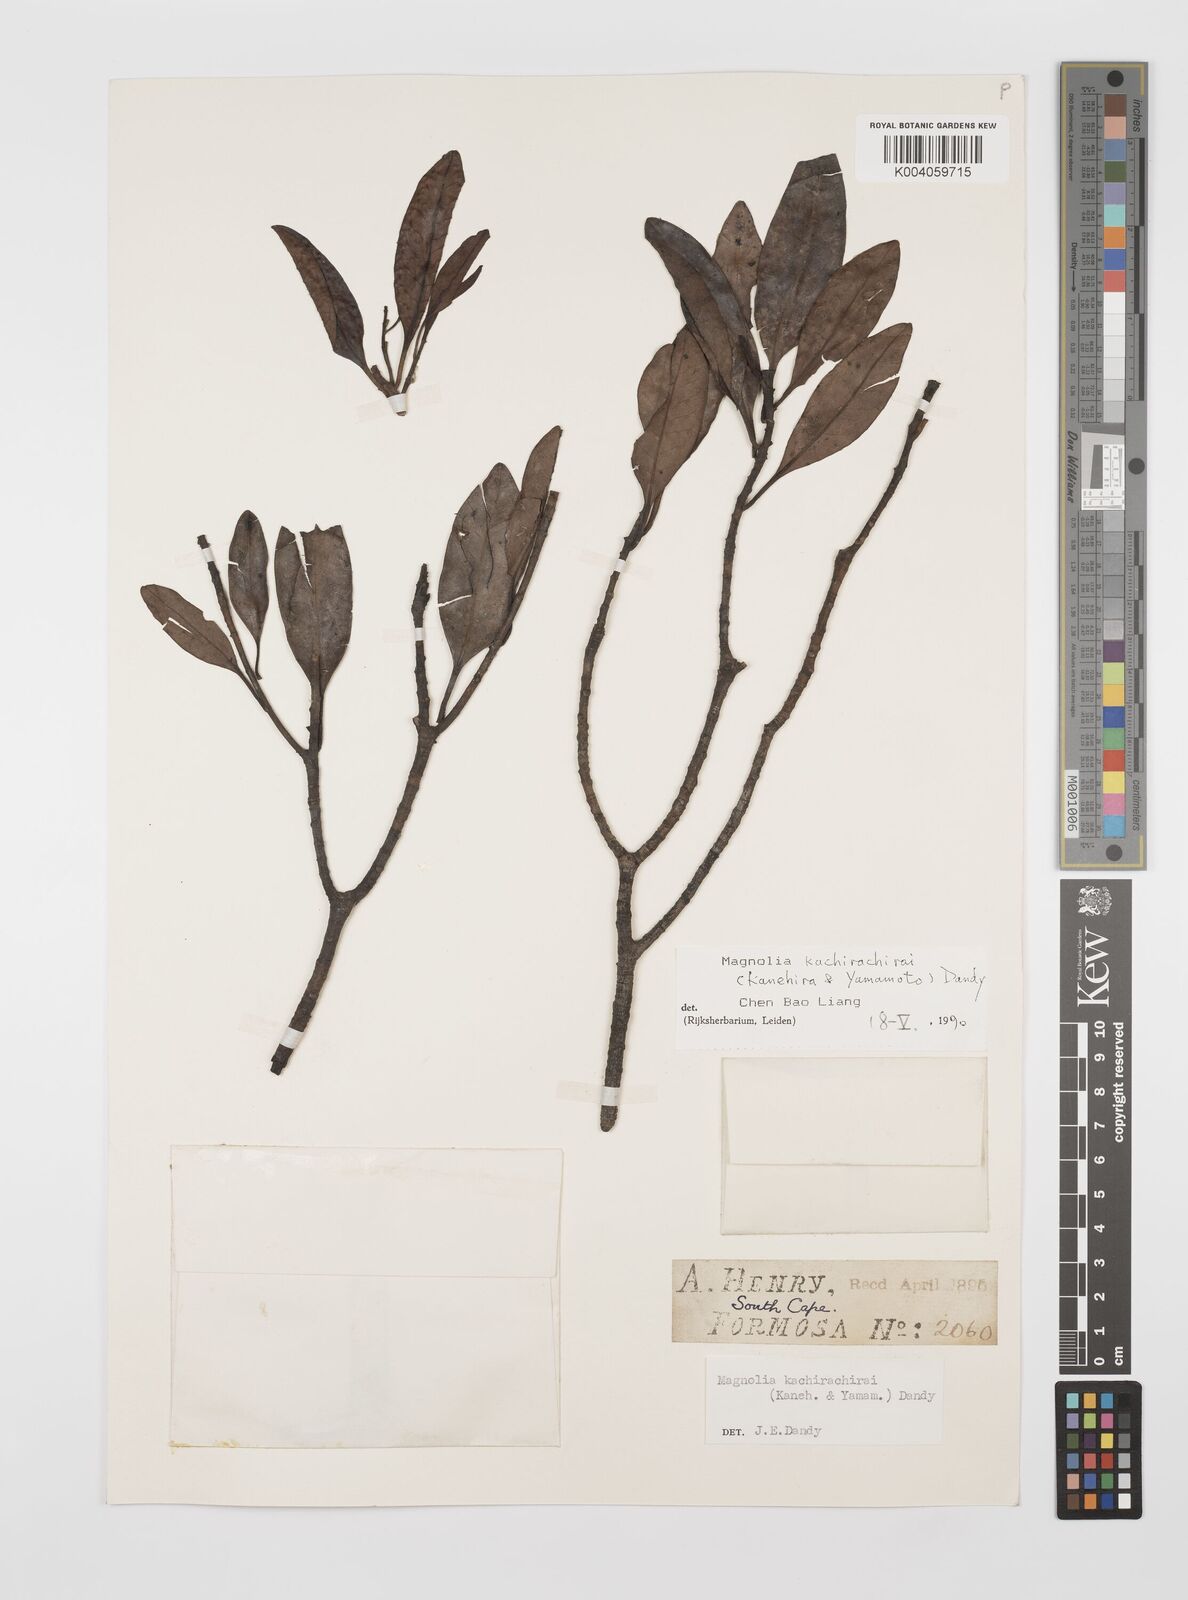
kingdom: Plantae
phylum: Tracheophyta
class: Magnoliopsida
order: Magnoliales
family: Magnoliaceae
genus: Magnolia
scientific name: Magnolia kachirachirai
